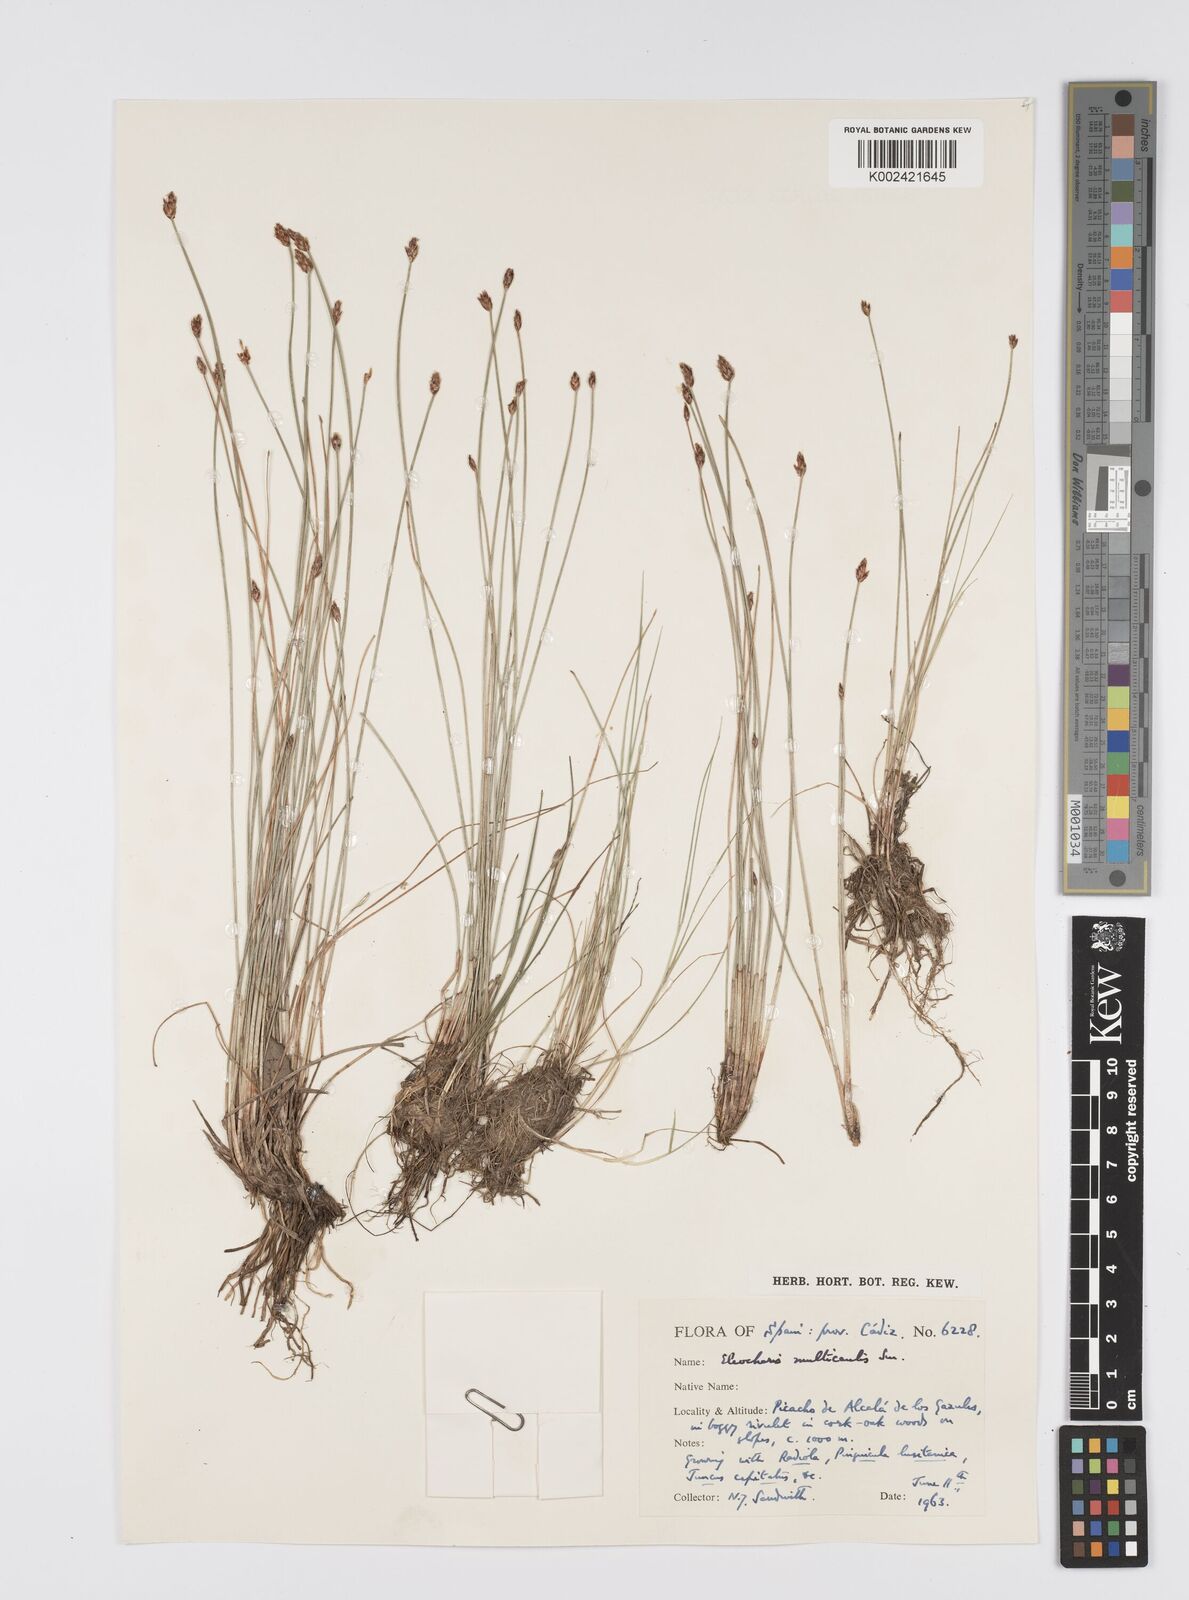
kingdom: Plantae
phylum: Tracheophyta
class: Liliopsida
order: Poales
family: Cyperaceae
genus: Eleocharis
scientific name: Eleocharis multicaulis
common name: Many-stalked spike-rush
